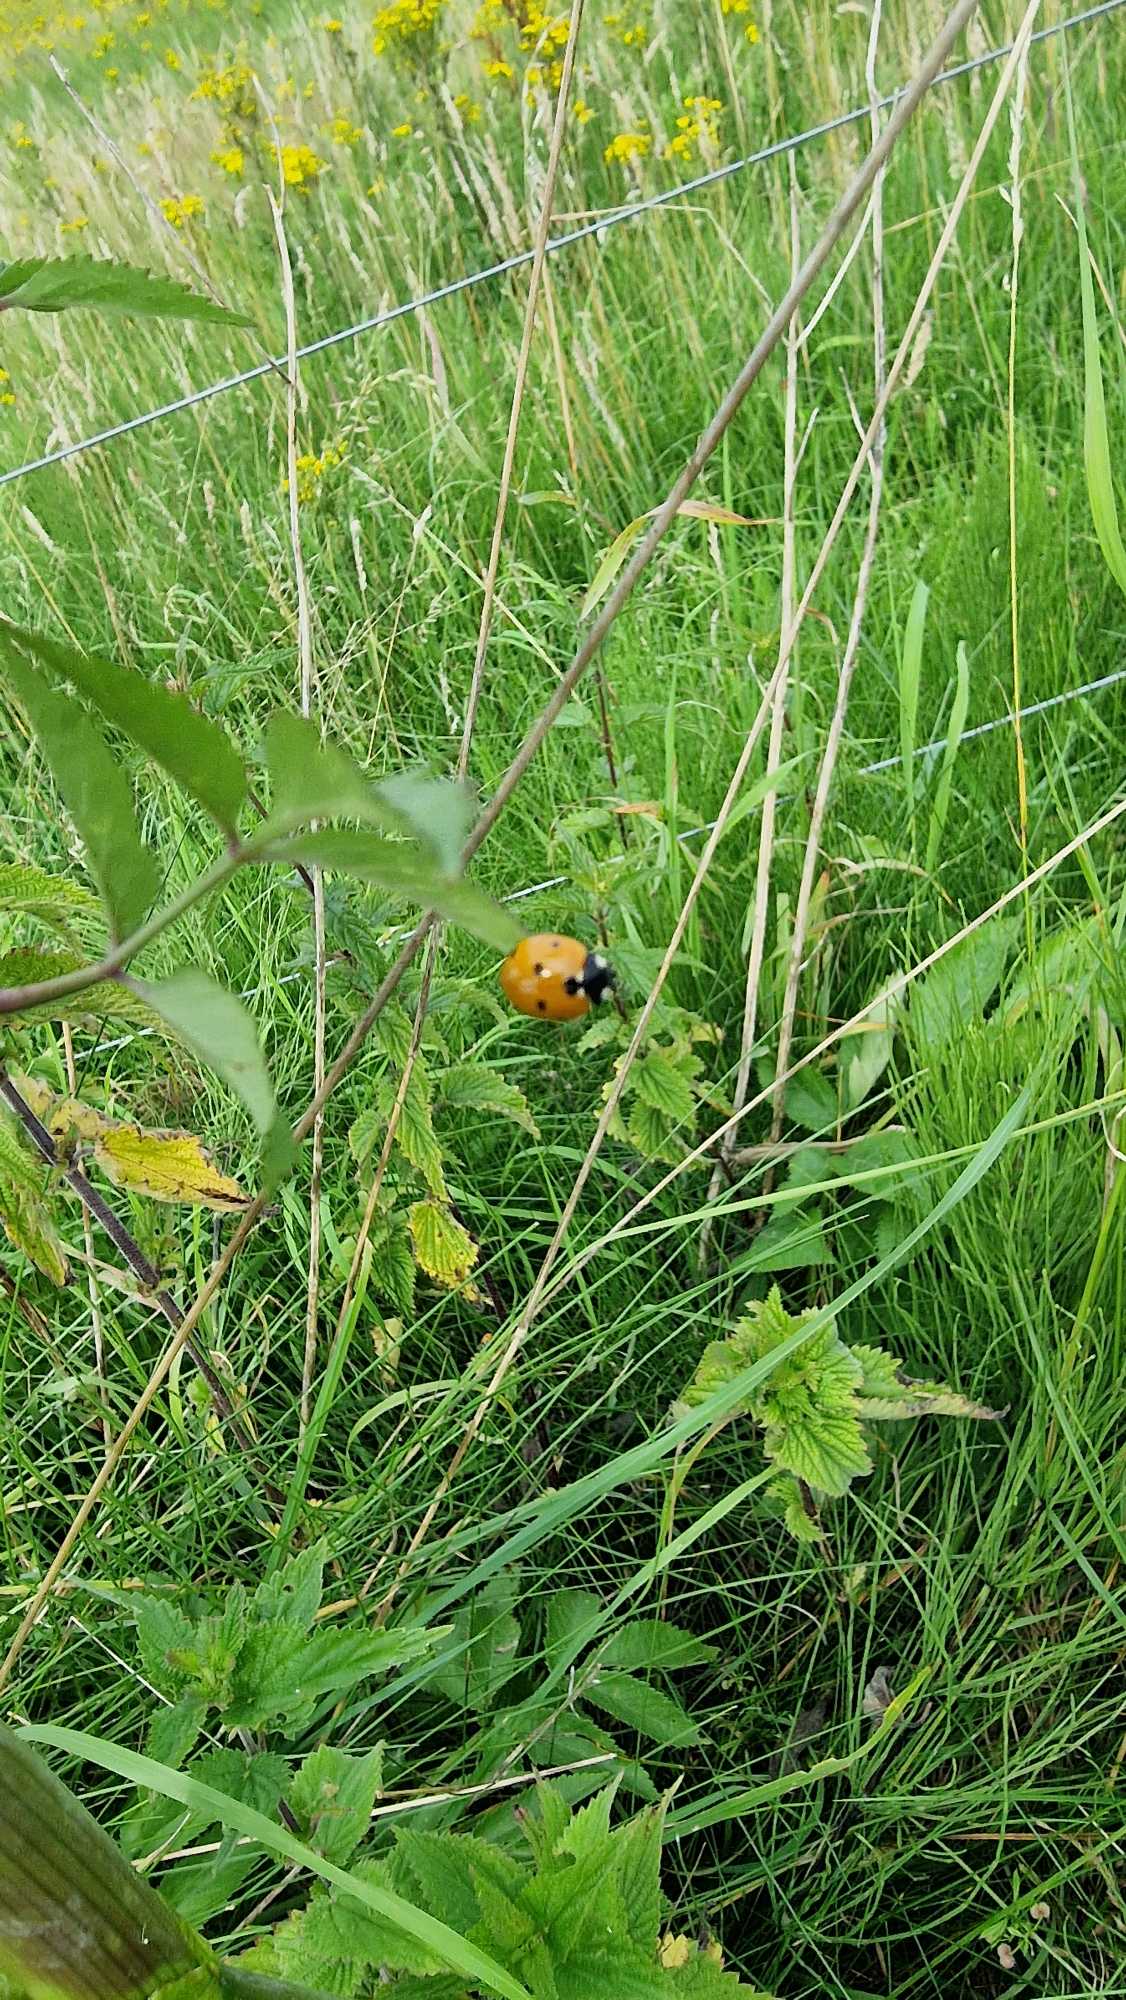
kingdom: Animalia
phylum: Arthropoda
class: Insecta
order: Coleoptera
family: Coccinellidae
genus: Coccinella
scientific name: Coccinella septempunctata
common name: Syvplettet mariehøne
